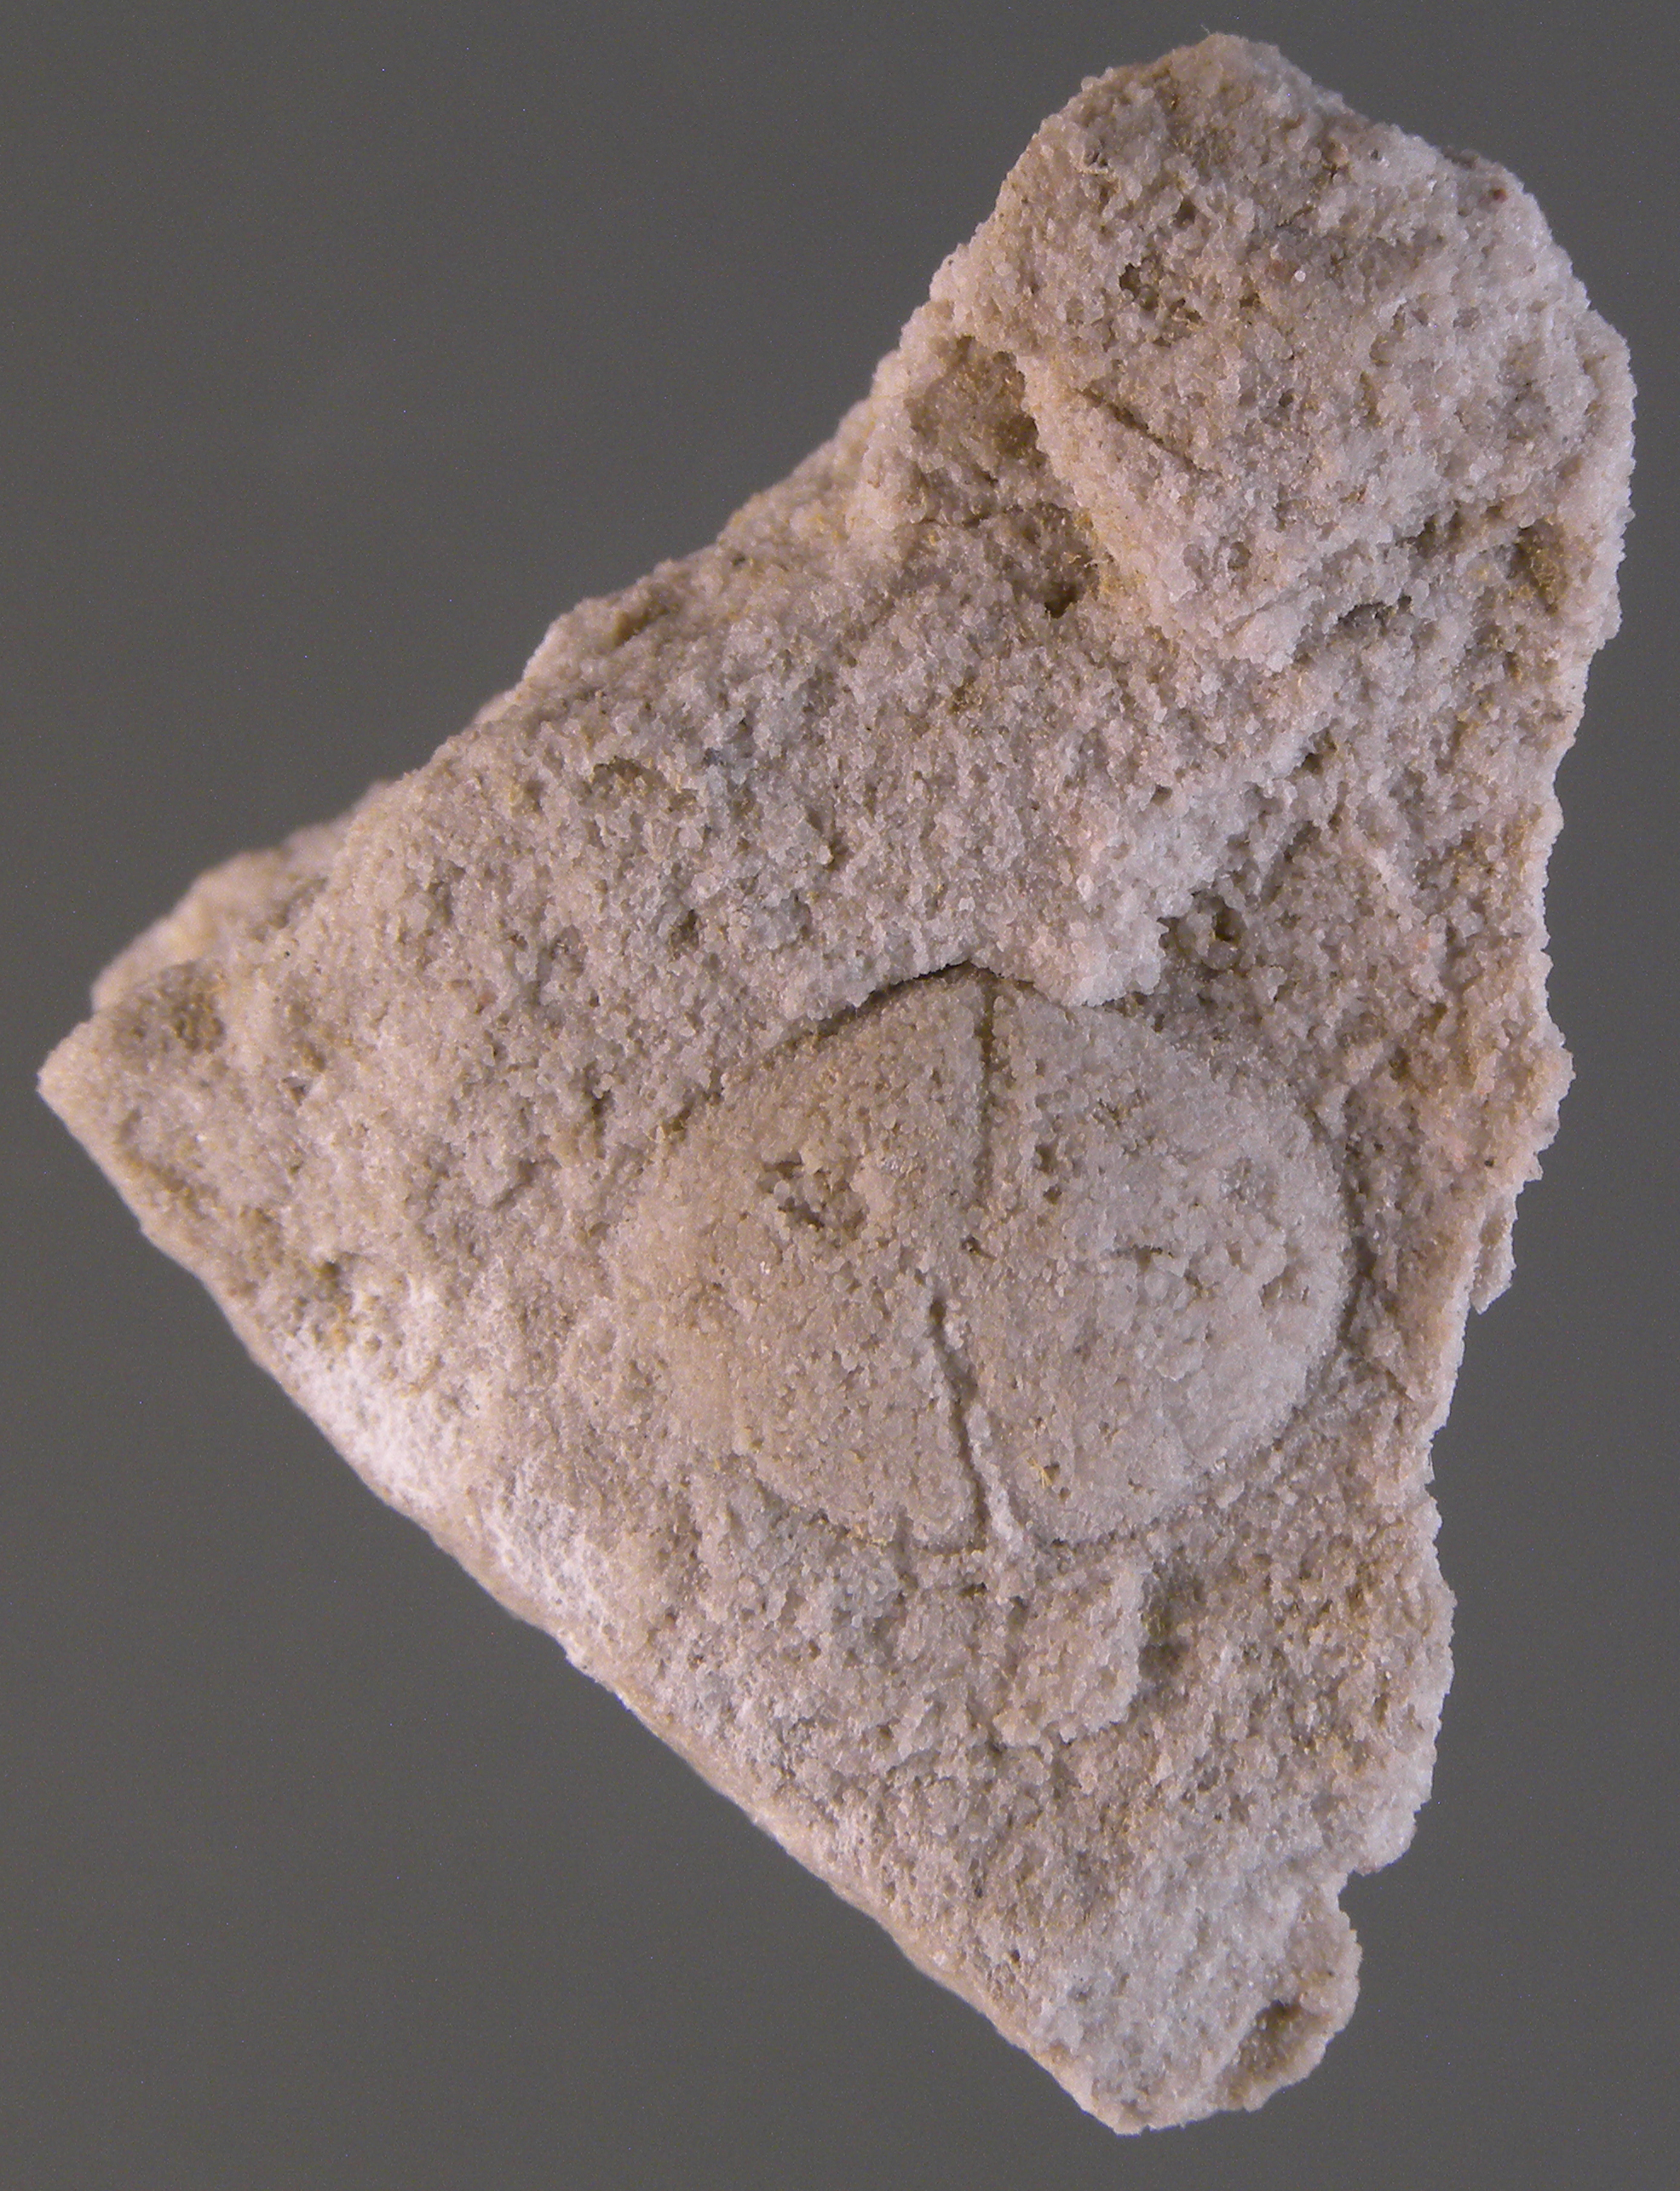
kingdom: Animalia
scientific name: Animalia
